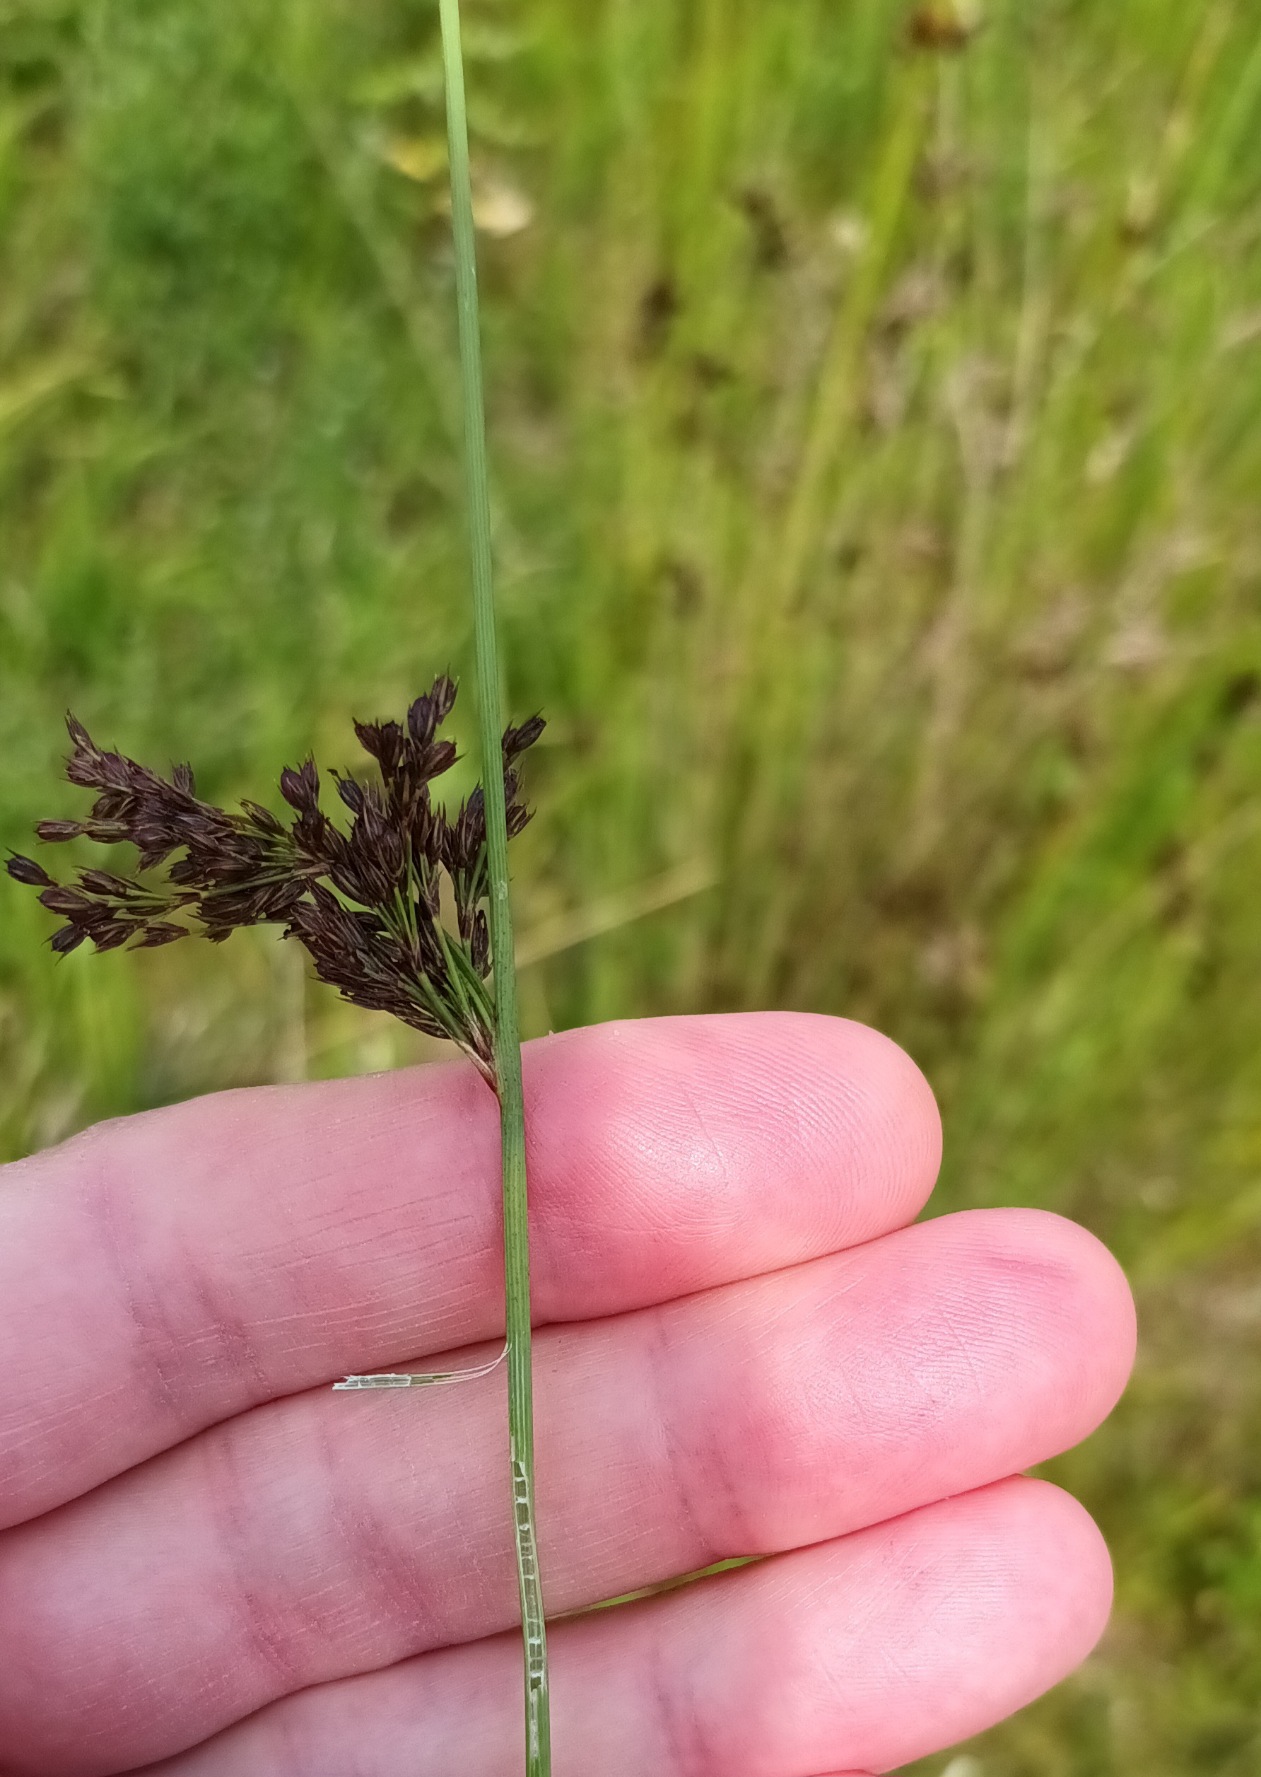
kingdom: Plantae
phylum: Tracheophyta
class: Liliopsida
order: Poales
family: Juncaceae
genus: Juncus
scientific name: Juncus inflexus
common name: Blågrå siv
